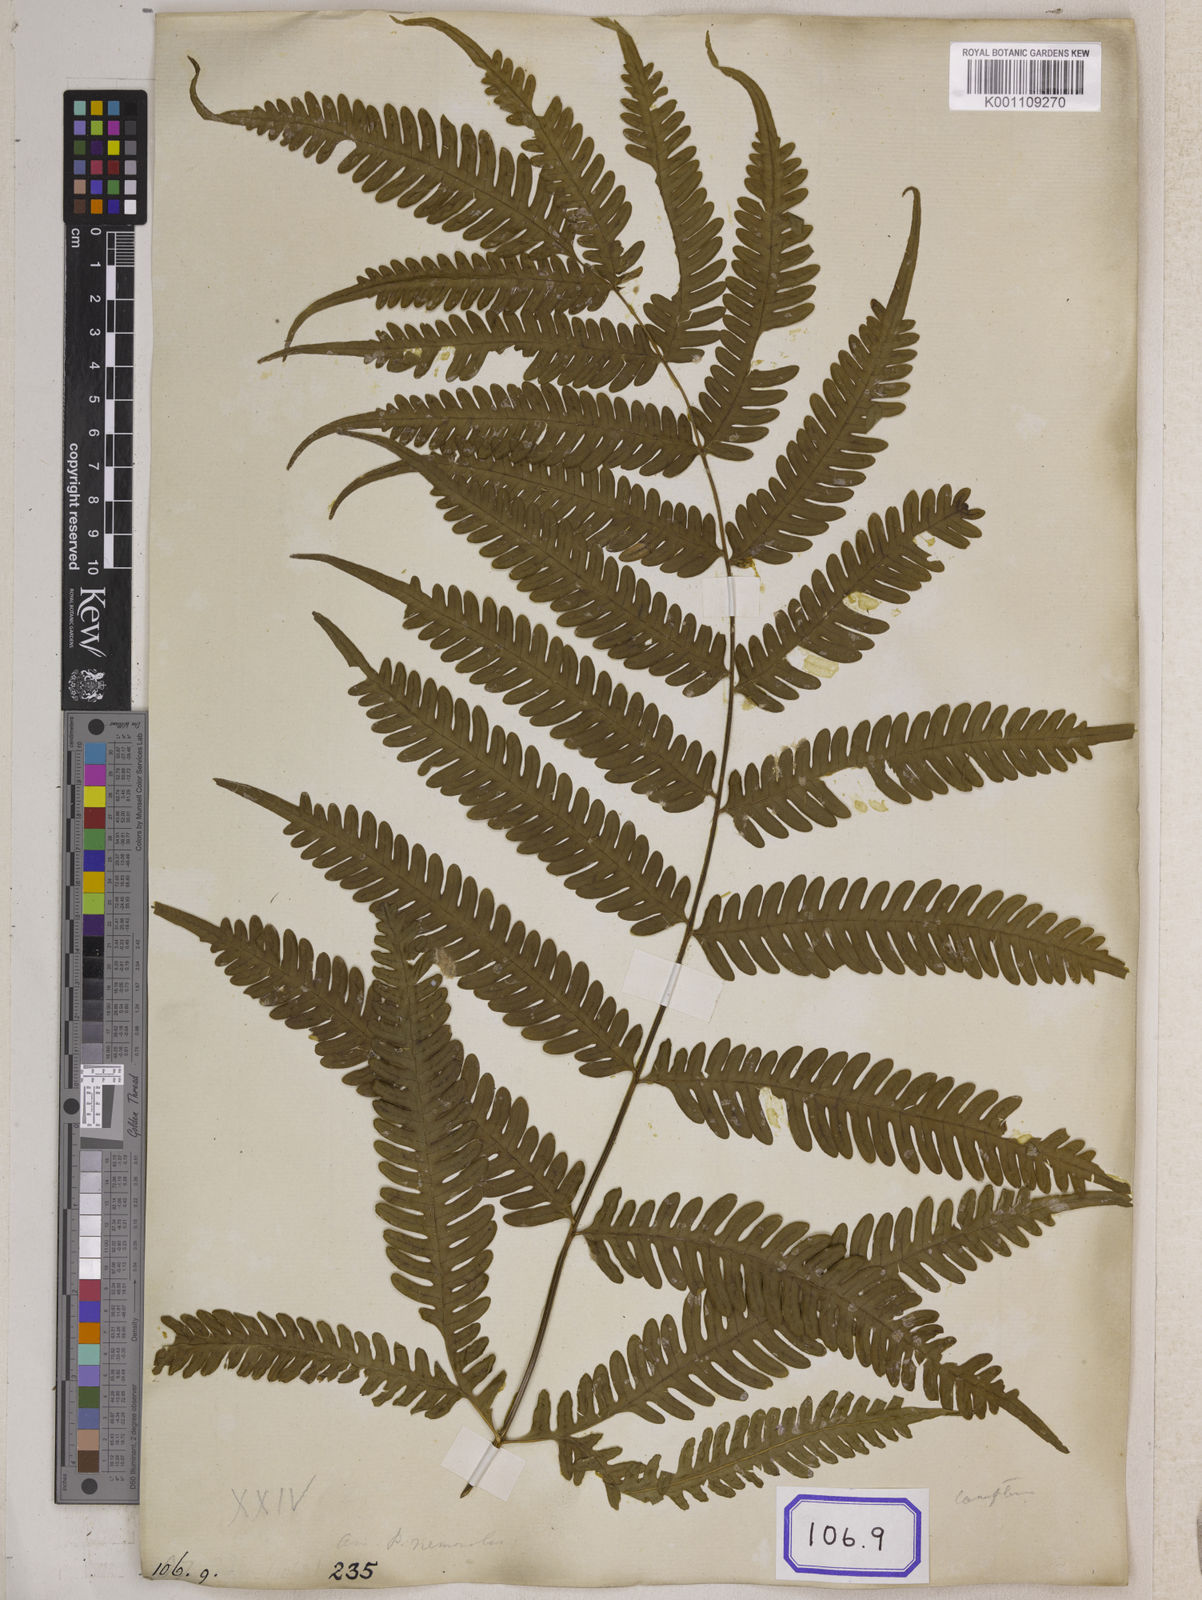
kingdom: Plantae
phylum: Tracheophyta
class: Polypodiopsida
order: Polypodiales
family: Pteridaceae
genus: Pteris
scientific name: Pteris linearis
